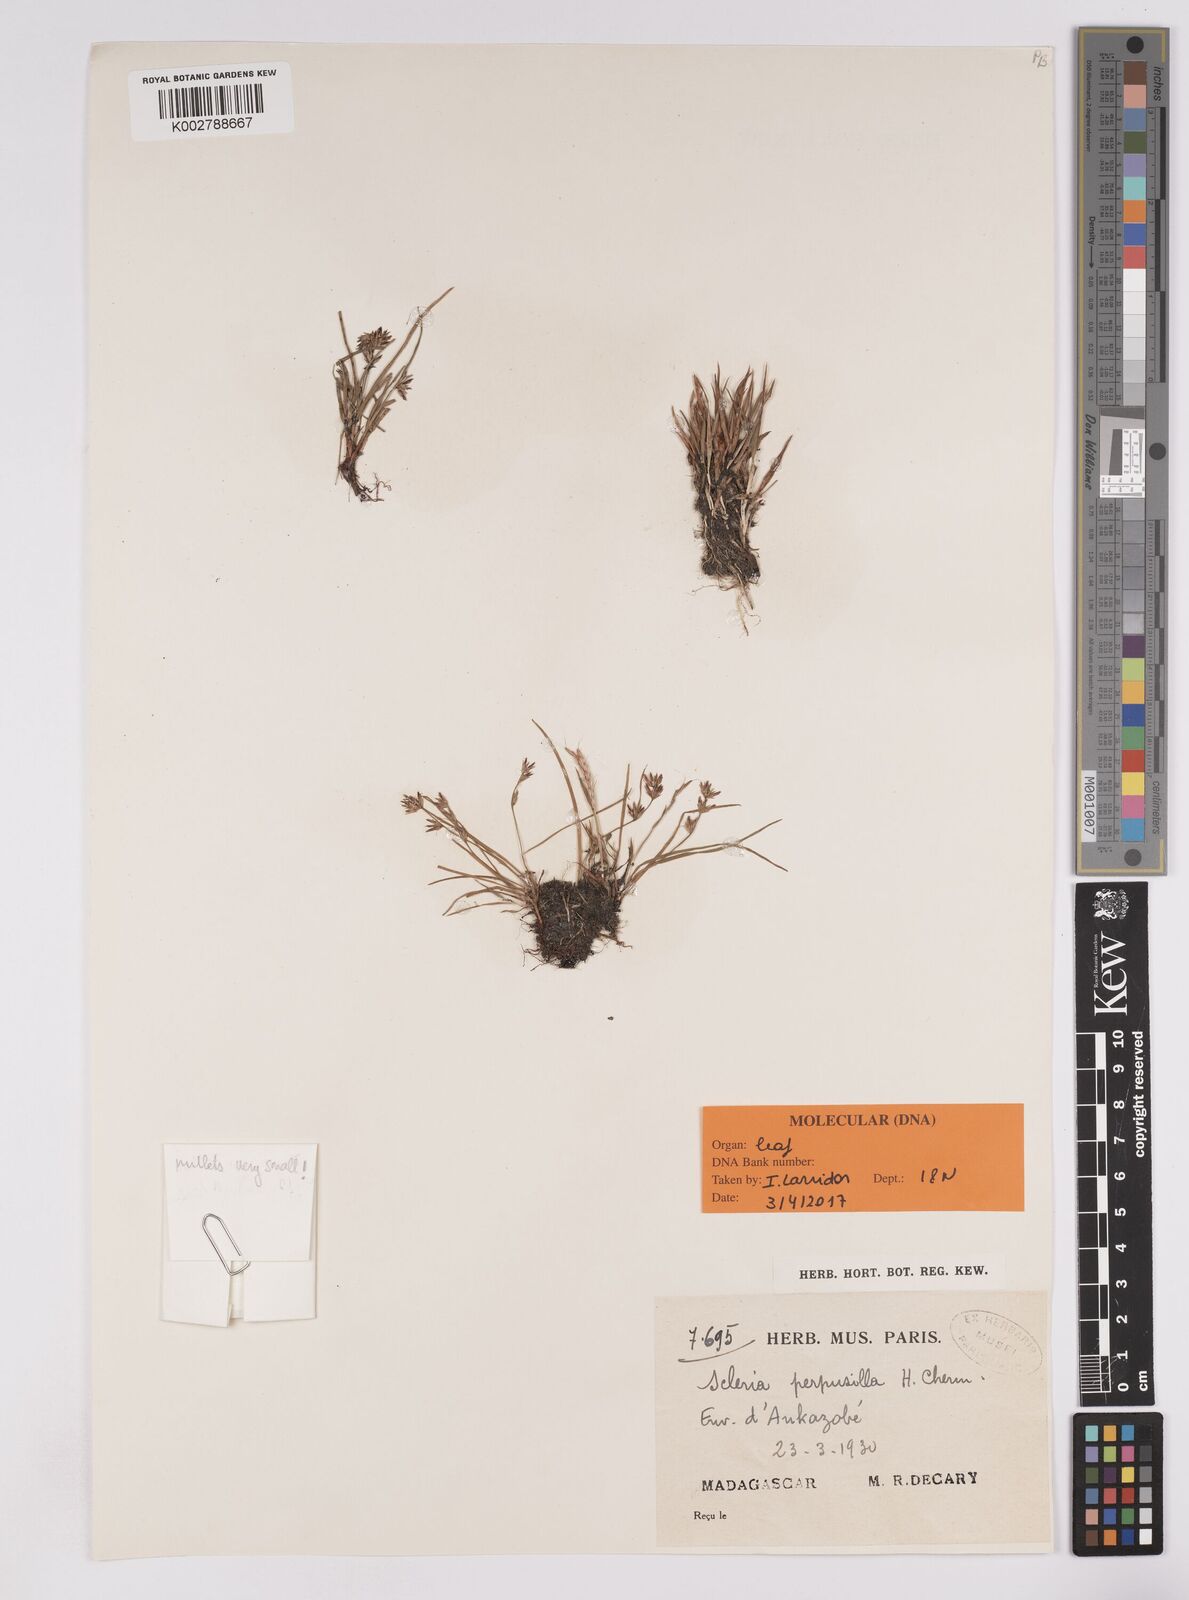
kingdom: Plantae
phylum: Tracheophyta
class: Liliopsida
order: Poales
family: Cyperaceae
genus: Scleria
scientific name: Scleria perpusilla
